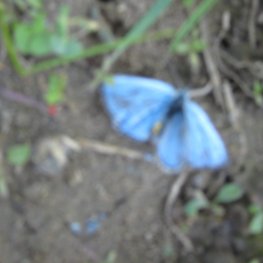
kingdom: Animalia
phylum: Arthropoda
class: Insecta
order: Lepidoptera
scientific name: Lepidoptera
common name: Butterflies
